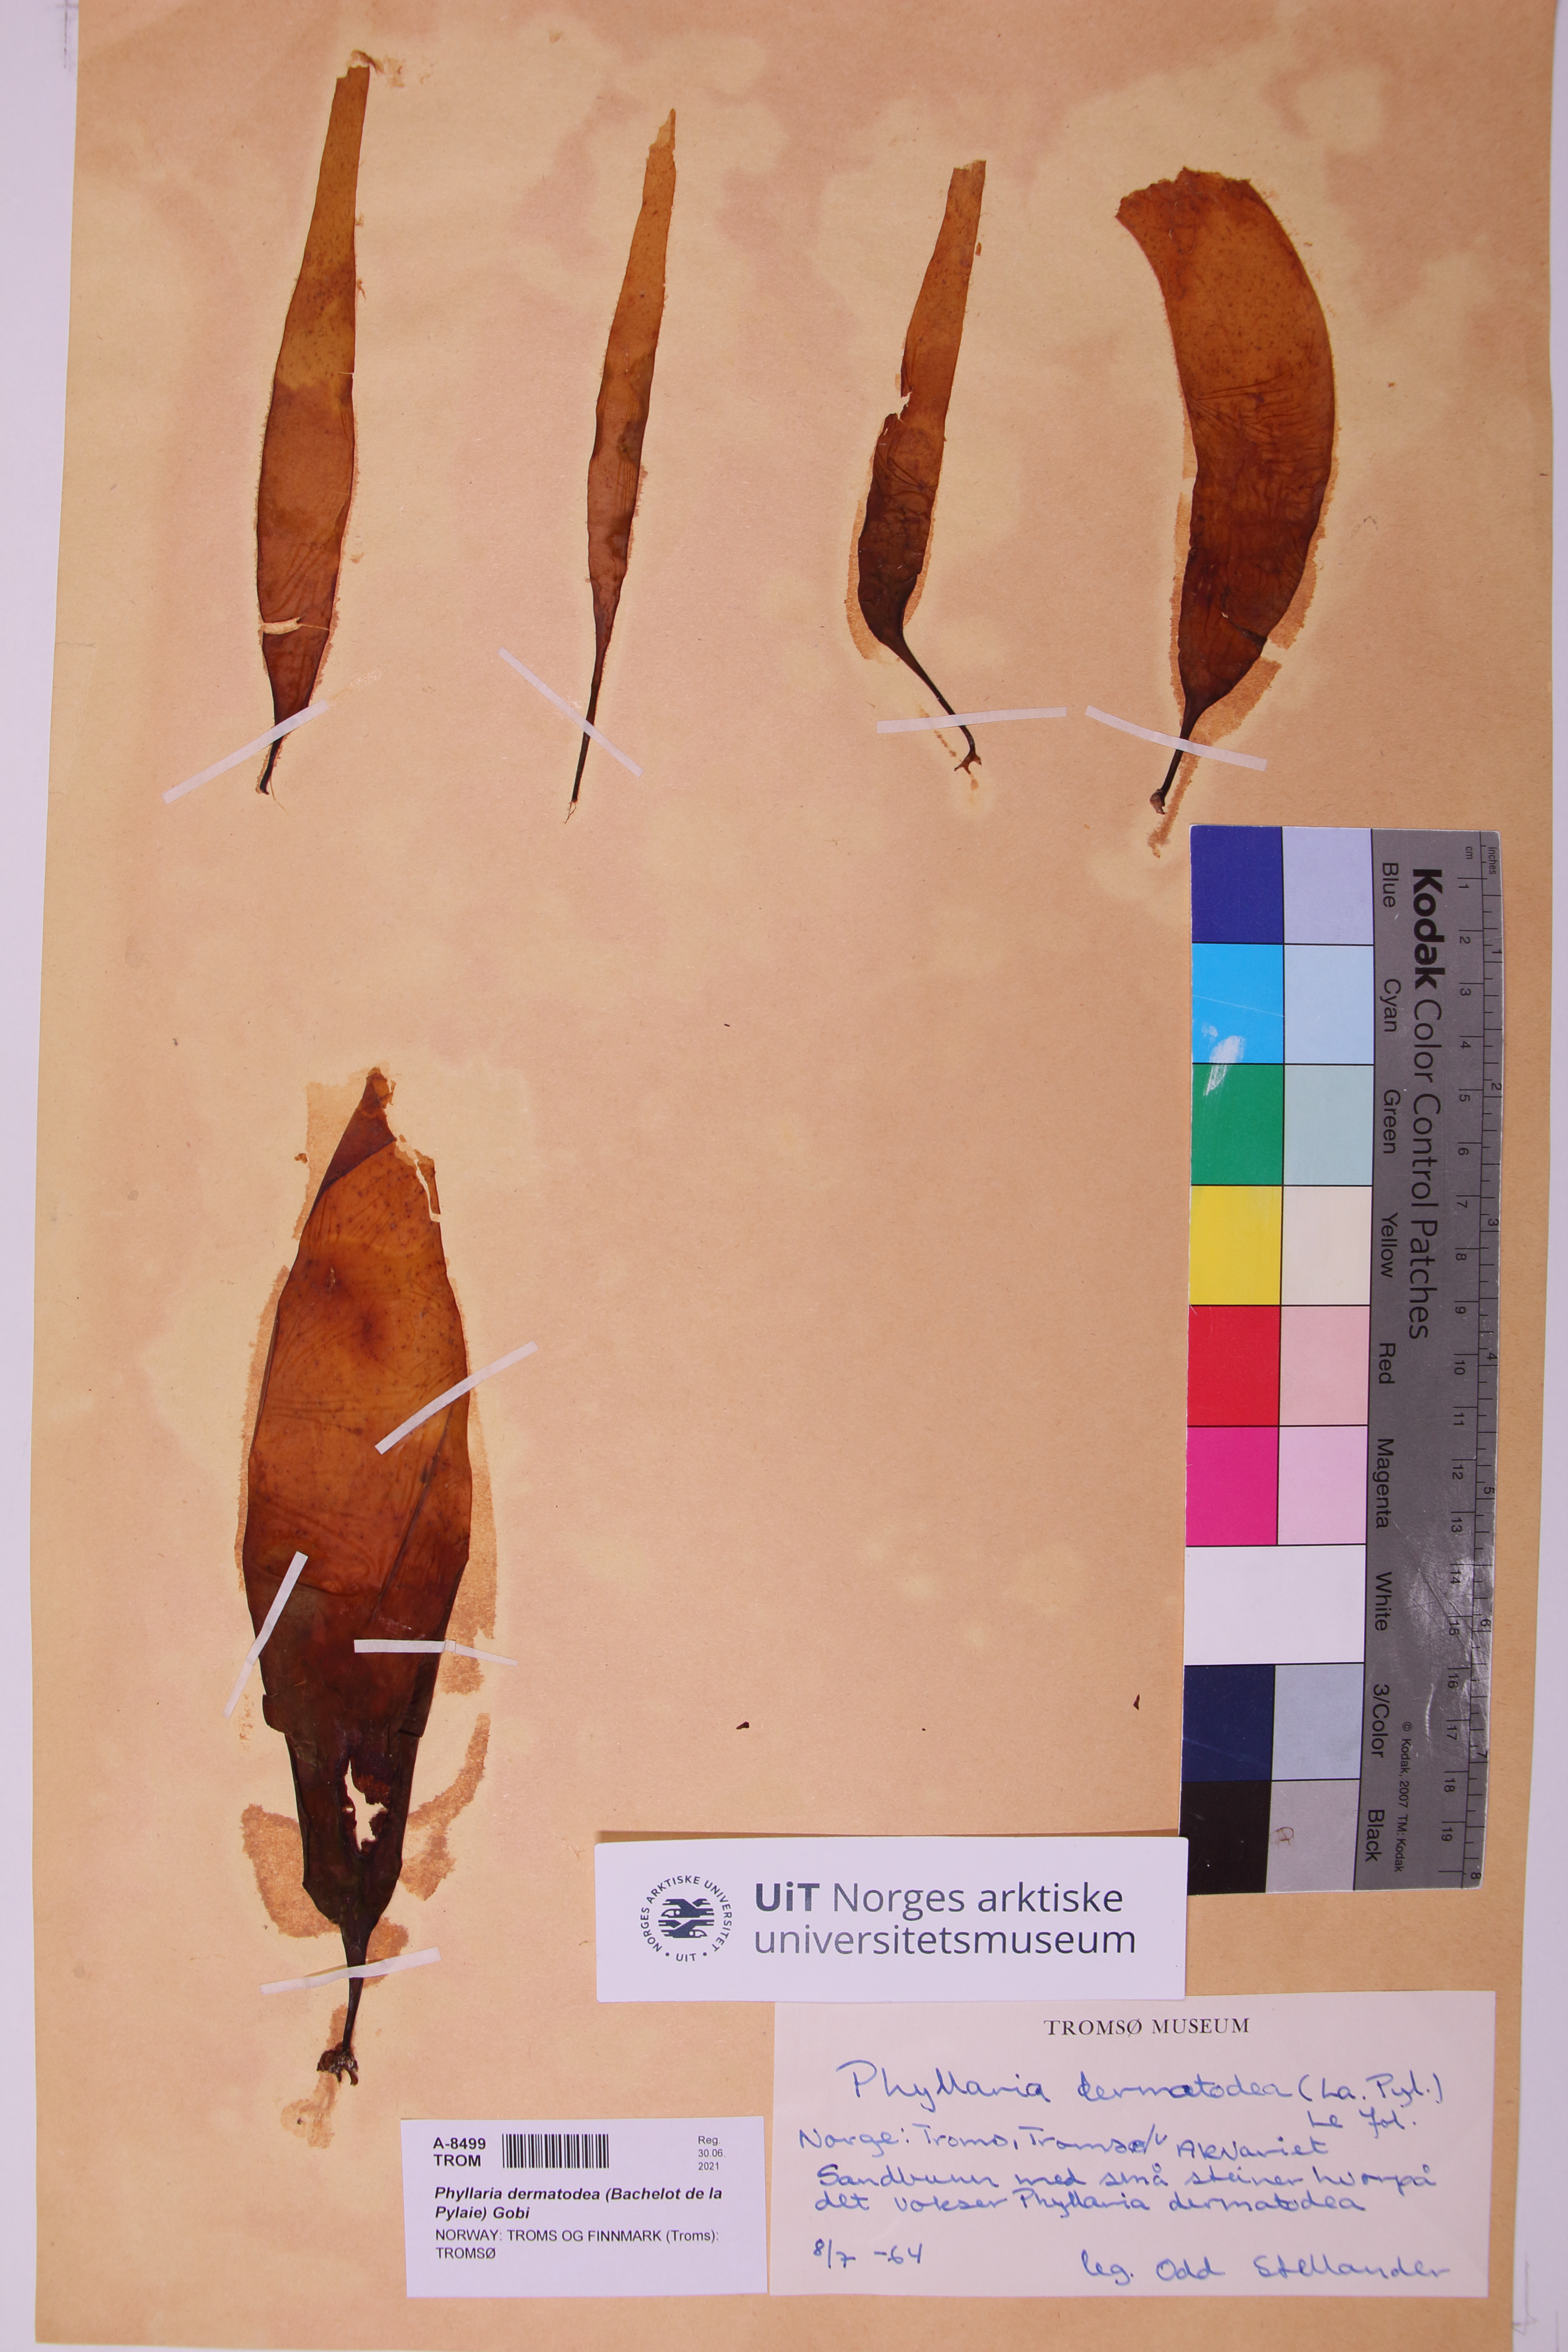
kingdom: Chromista
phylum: Ochrophyta
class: Phaeophyceae
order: Tilopteridales
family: Phyllariaceae
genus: Saccorhiza
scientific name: Saccorhiza dermatodea
